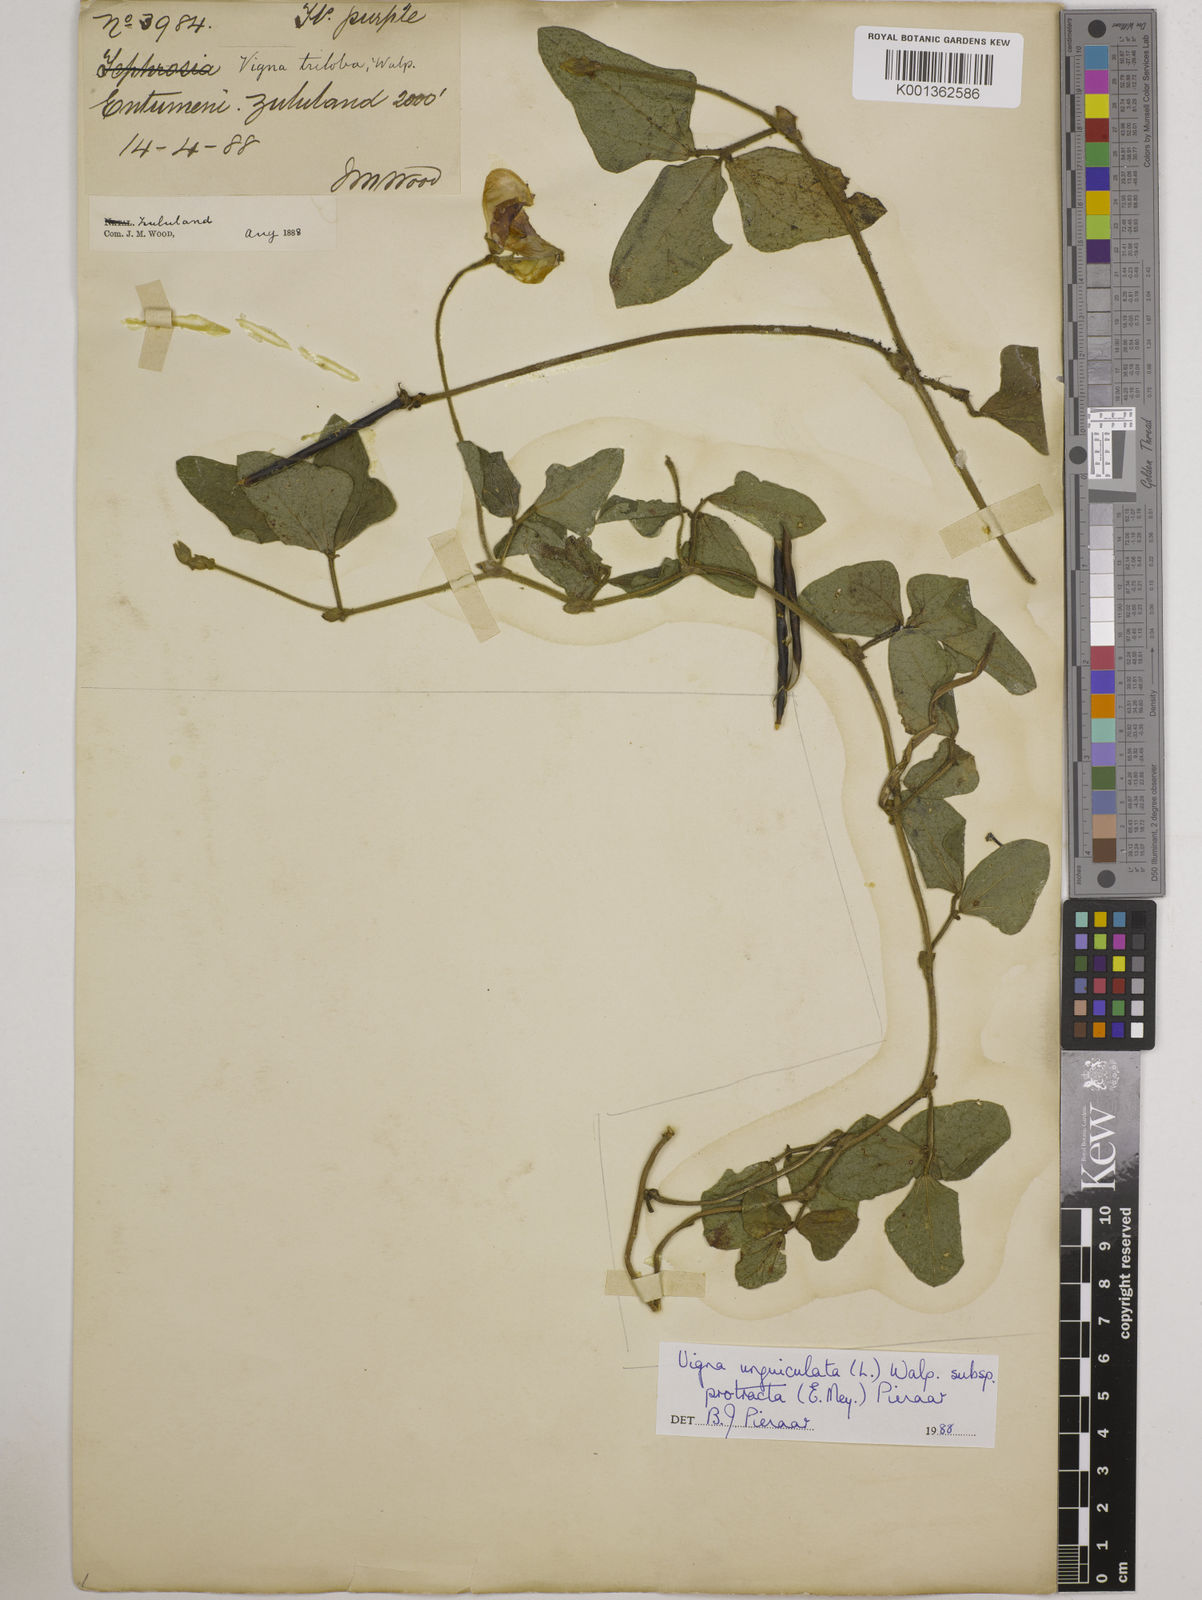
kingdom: Plantae
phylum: Tracheophyta
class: Magnoliopsida
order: Fabales
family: Fabaceae
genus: Vigna
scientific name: Vigna unguiculata
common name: Cowpea
